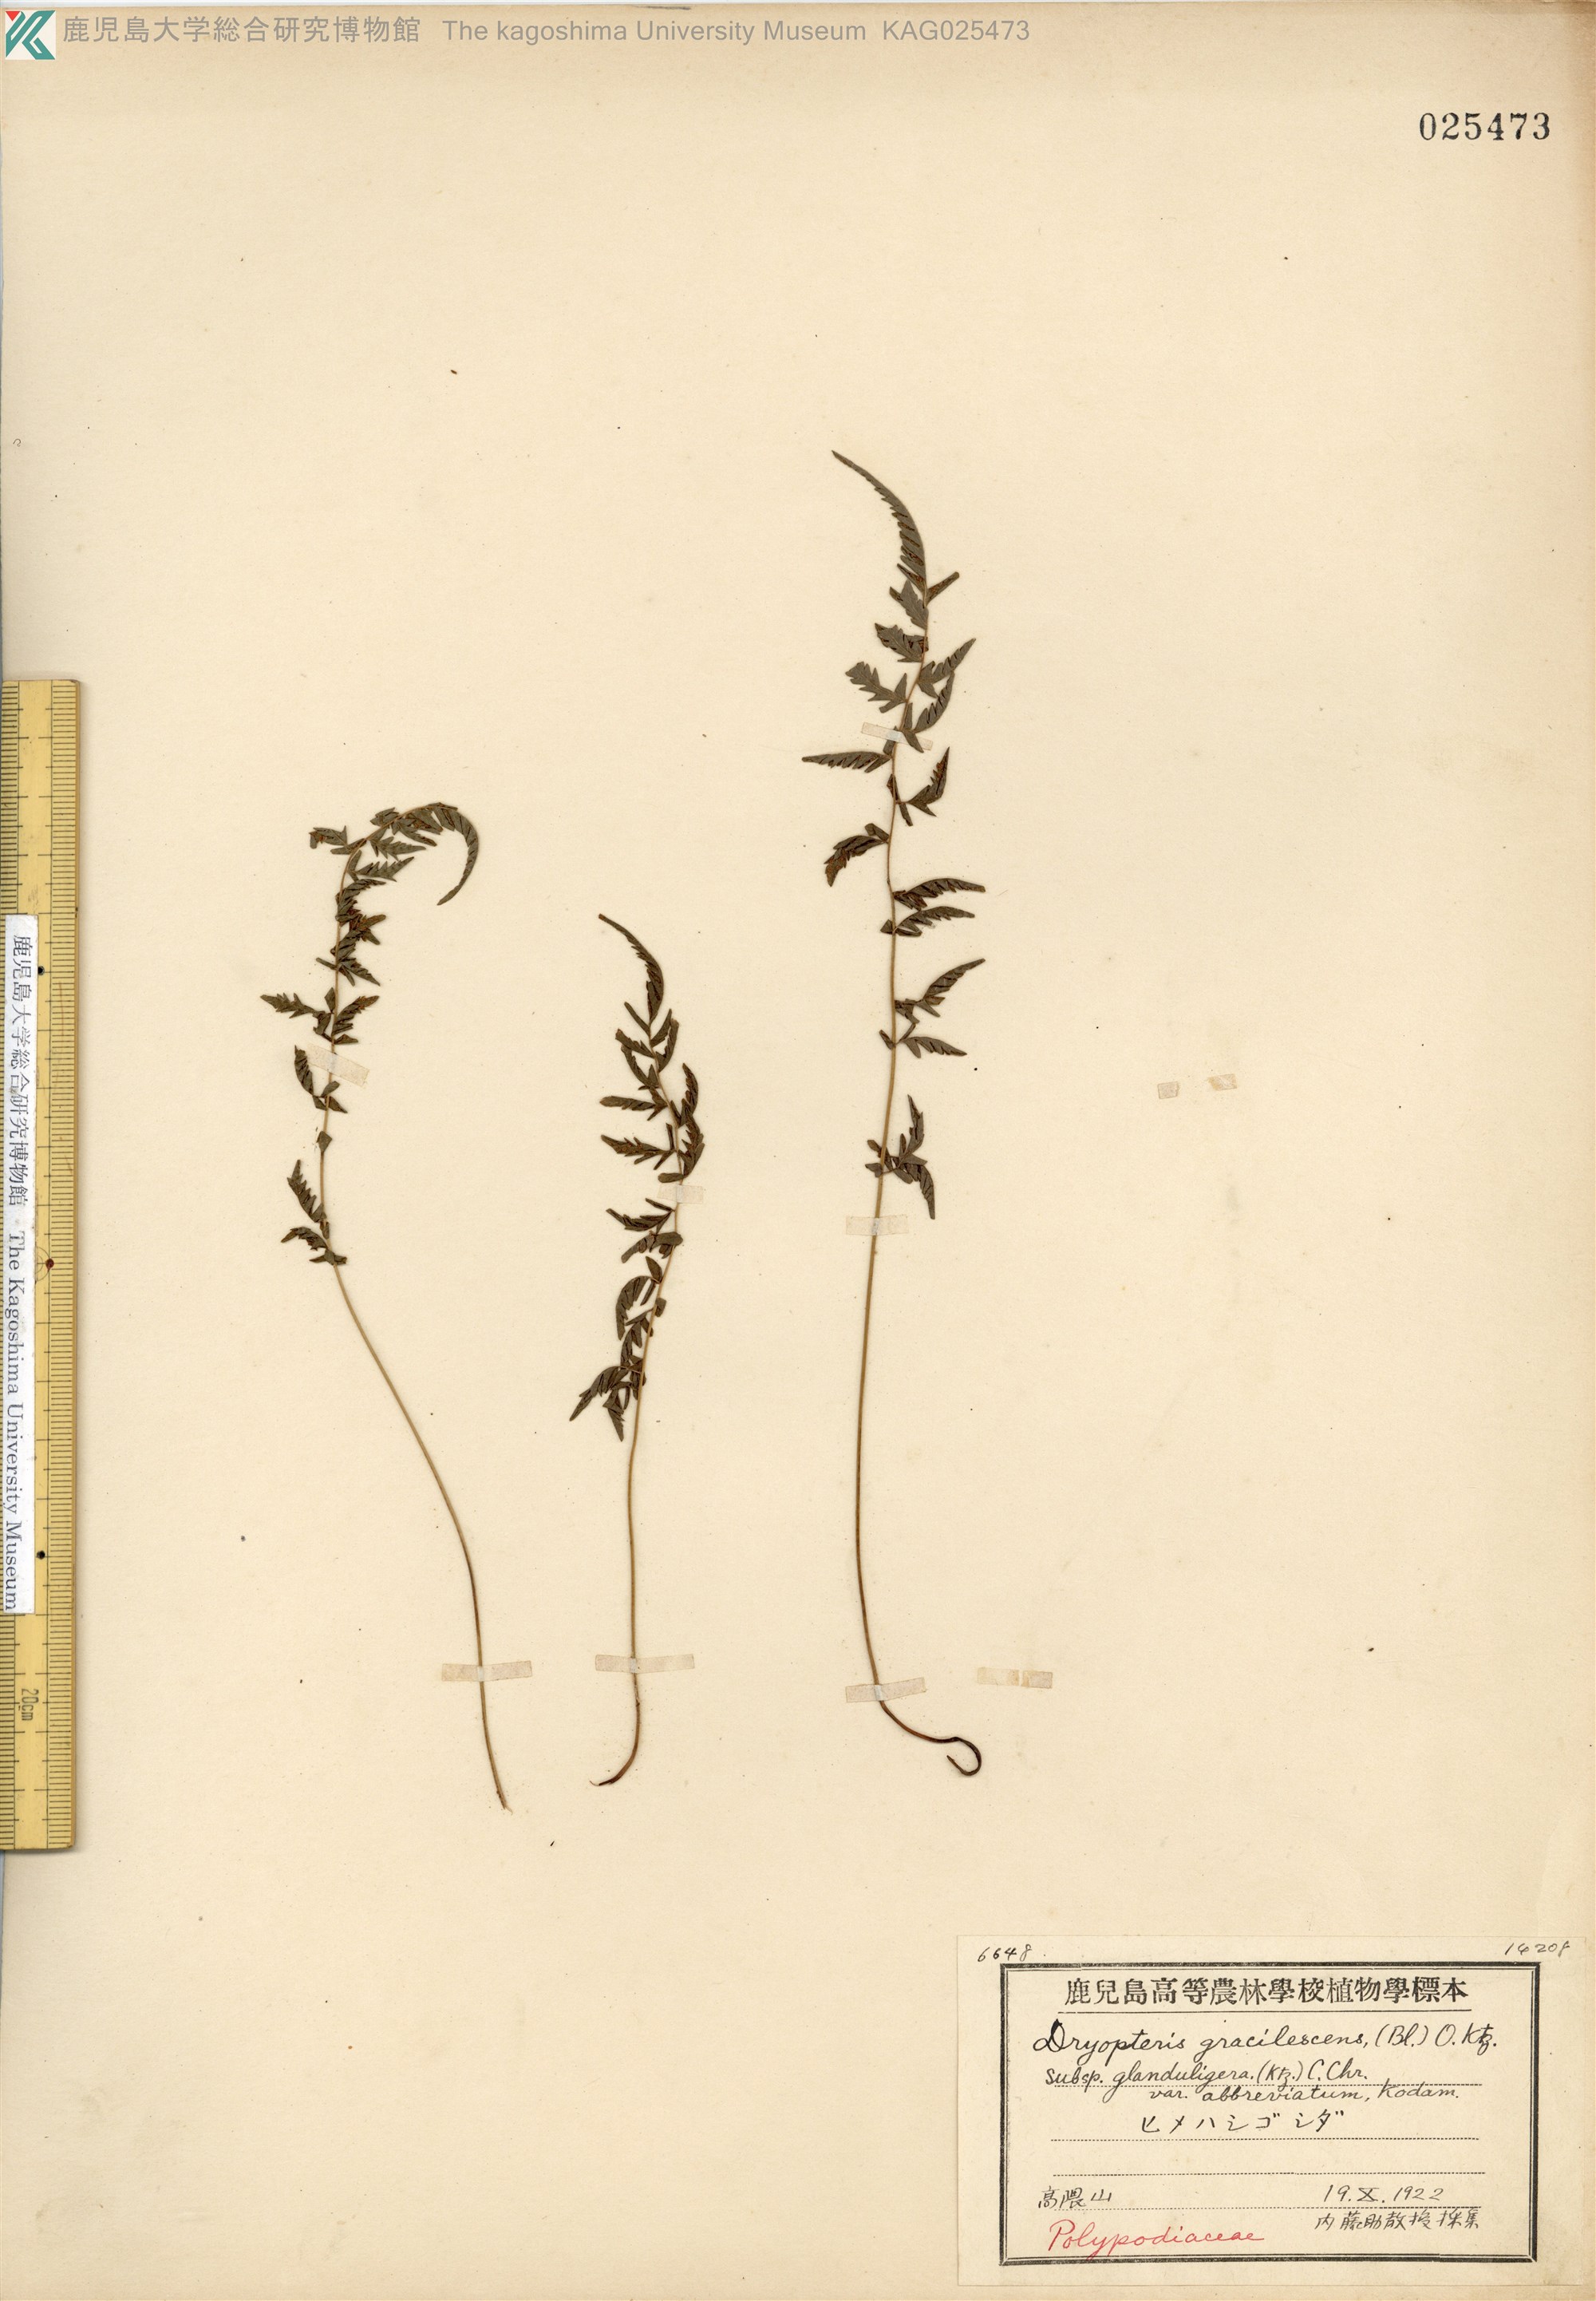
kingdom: Plantae
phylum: Tracheophyta
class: Polypodiopsida
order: Polypodiales
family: Thelypteridaceae
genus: Amauropelta
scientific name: Amauropelta cystopteroides
